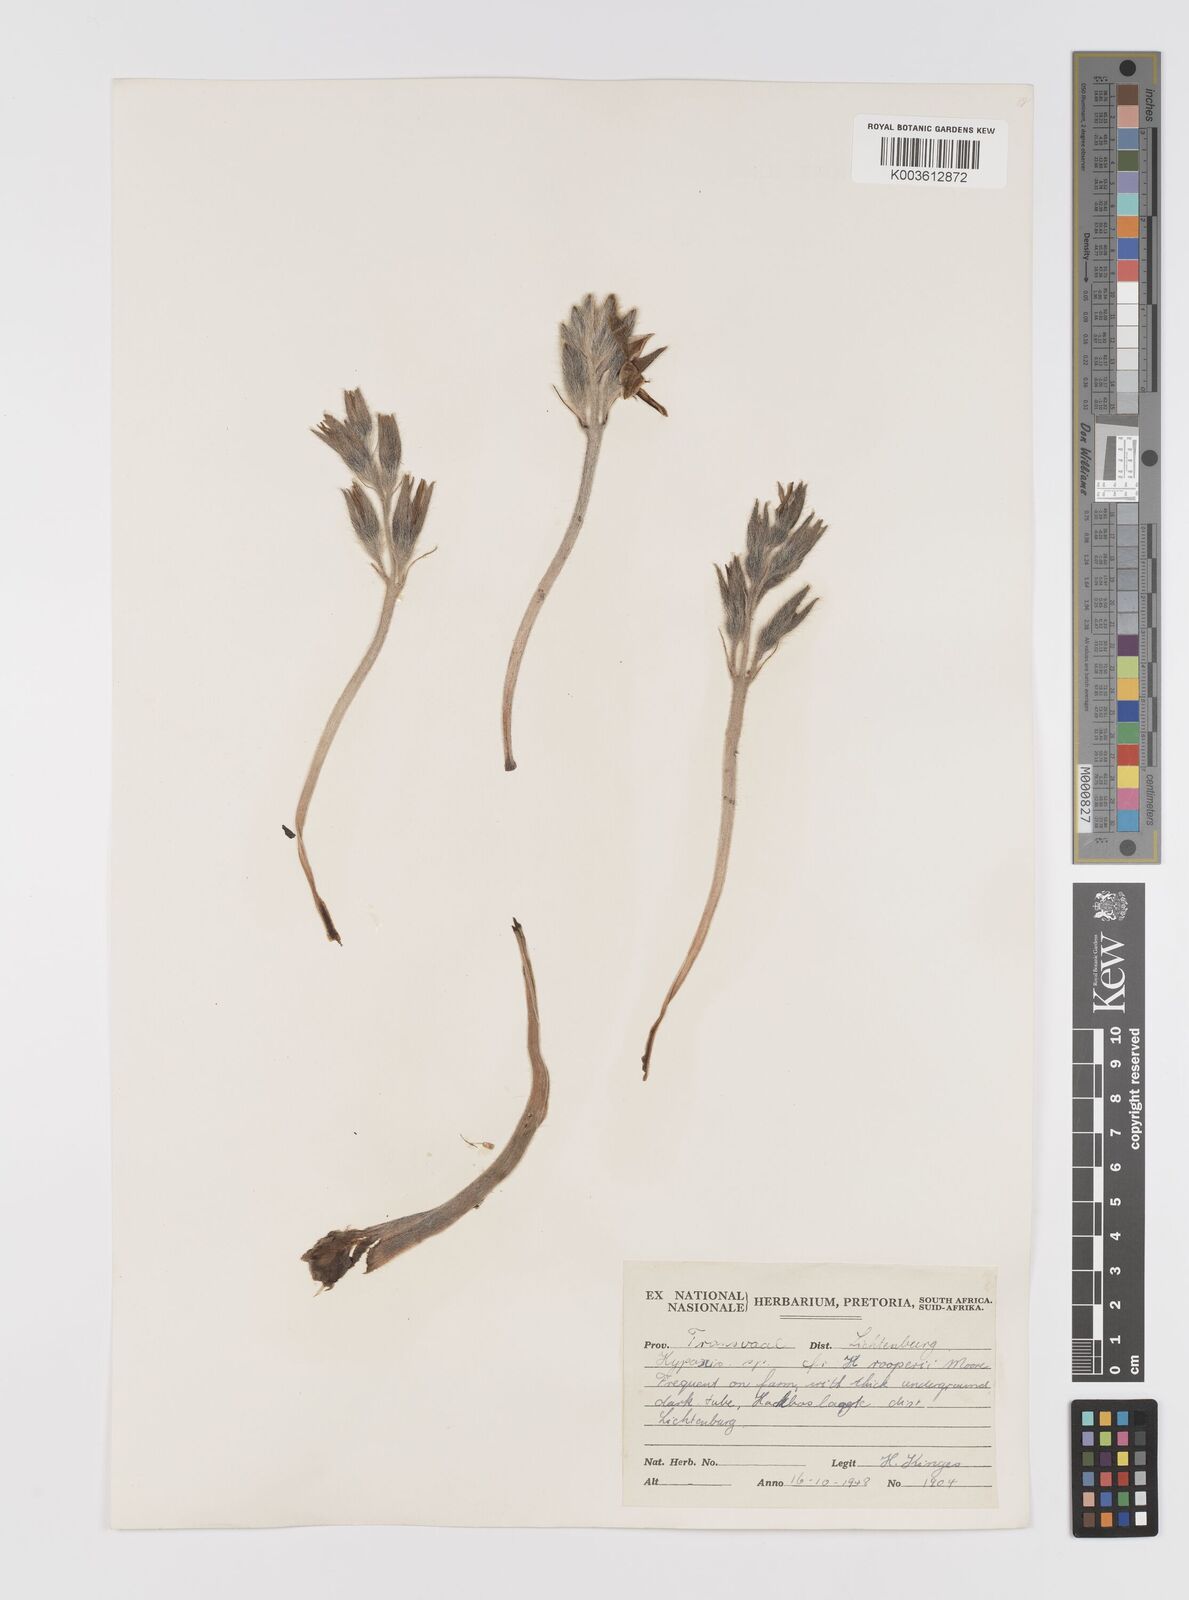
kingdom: Plantae
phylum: Tracheophyta
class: Liliopsida
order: Asparagales
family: Hypoxidaceae
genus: Hypoxis
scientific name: Hypoxis hemerocallidea
